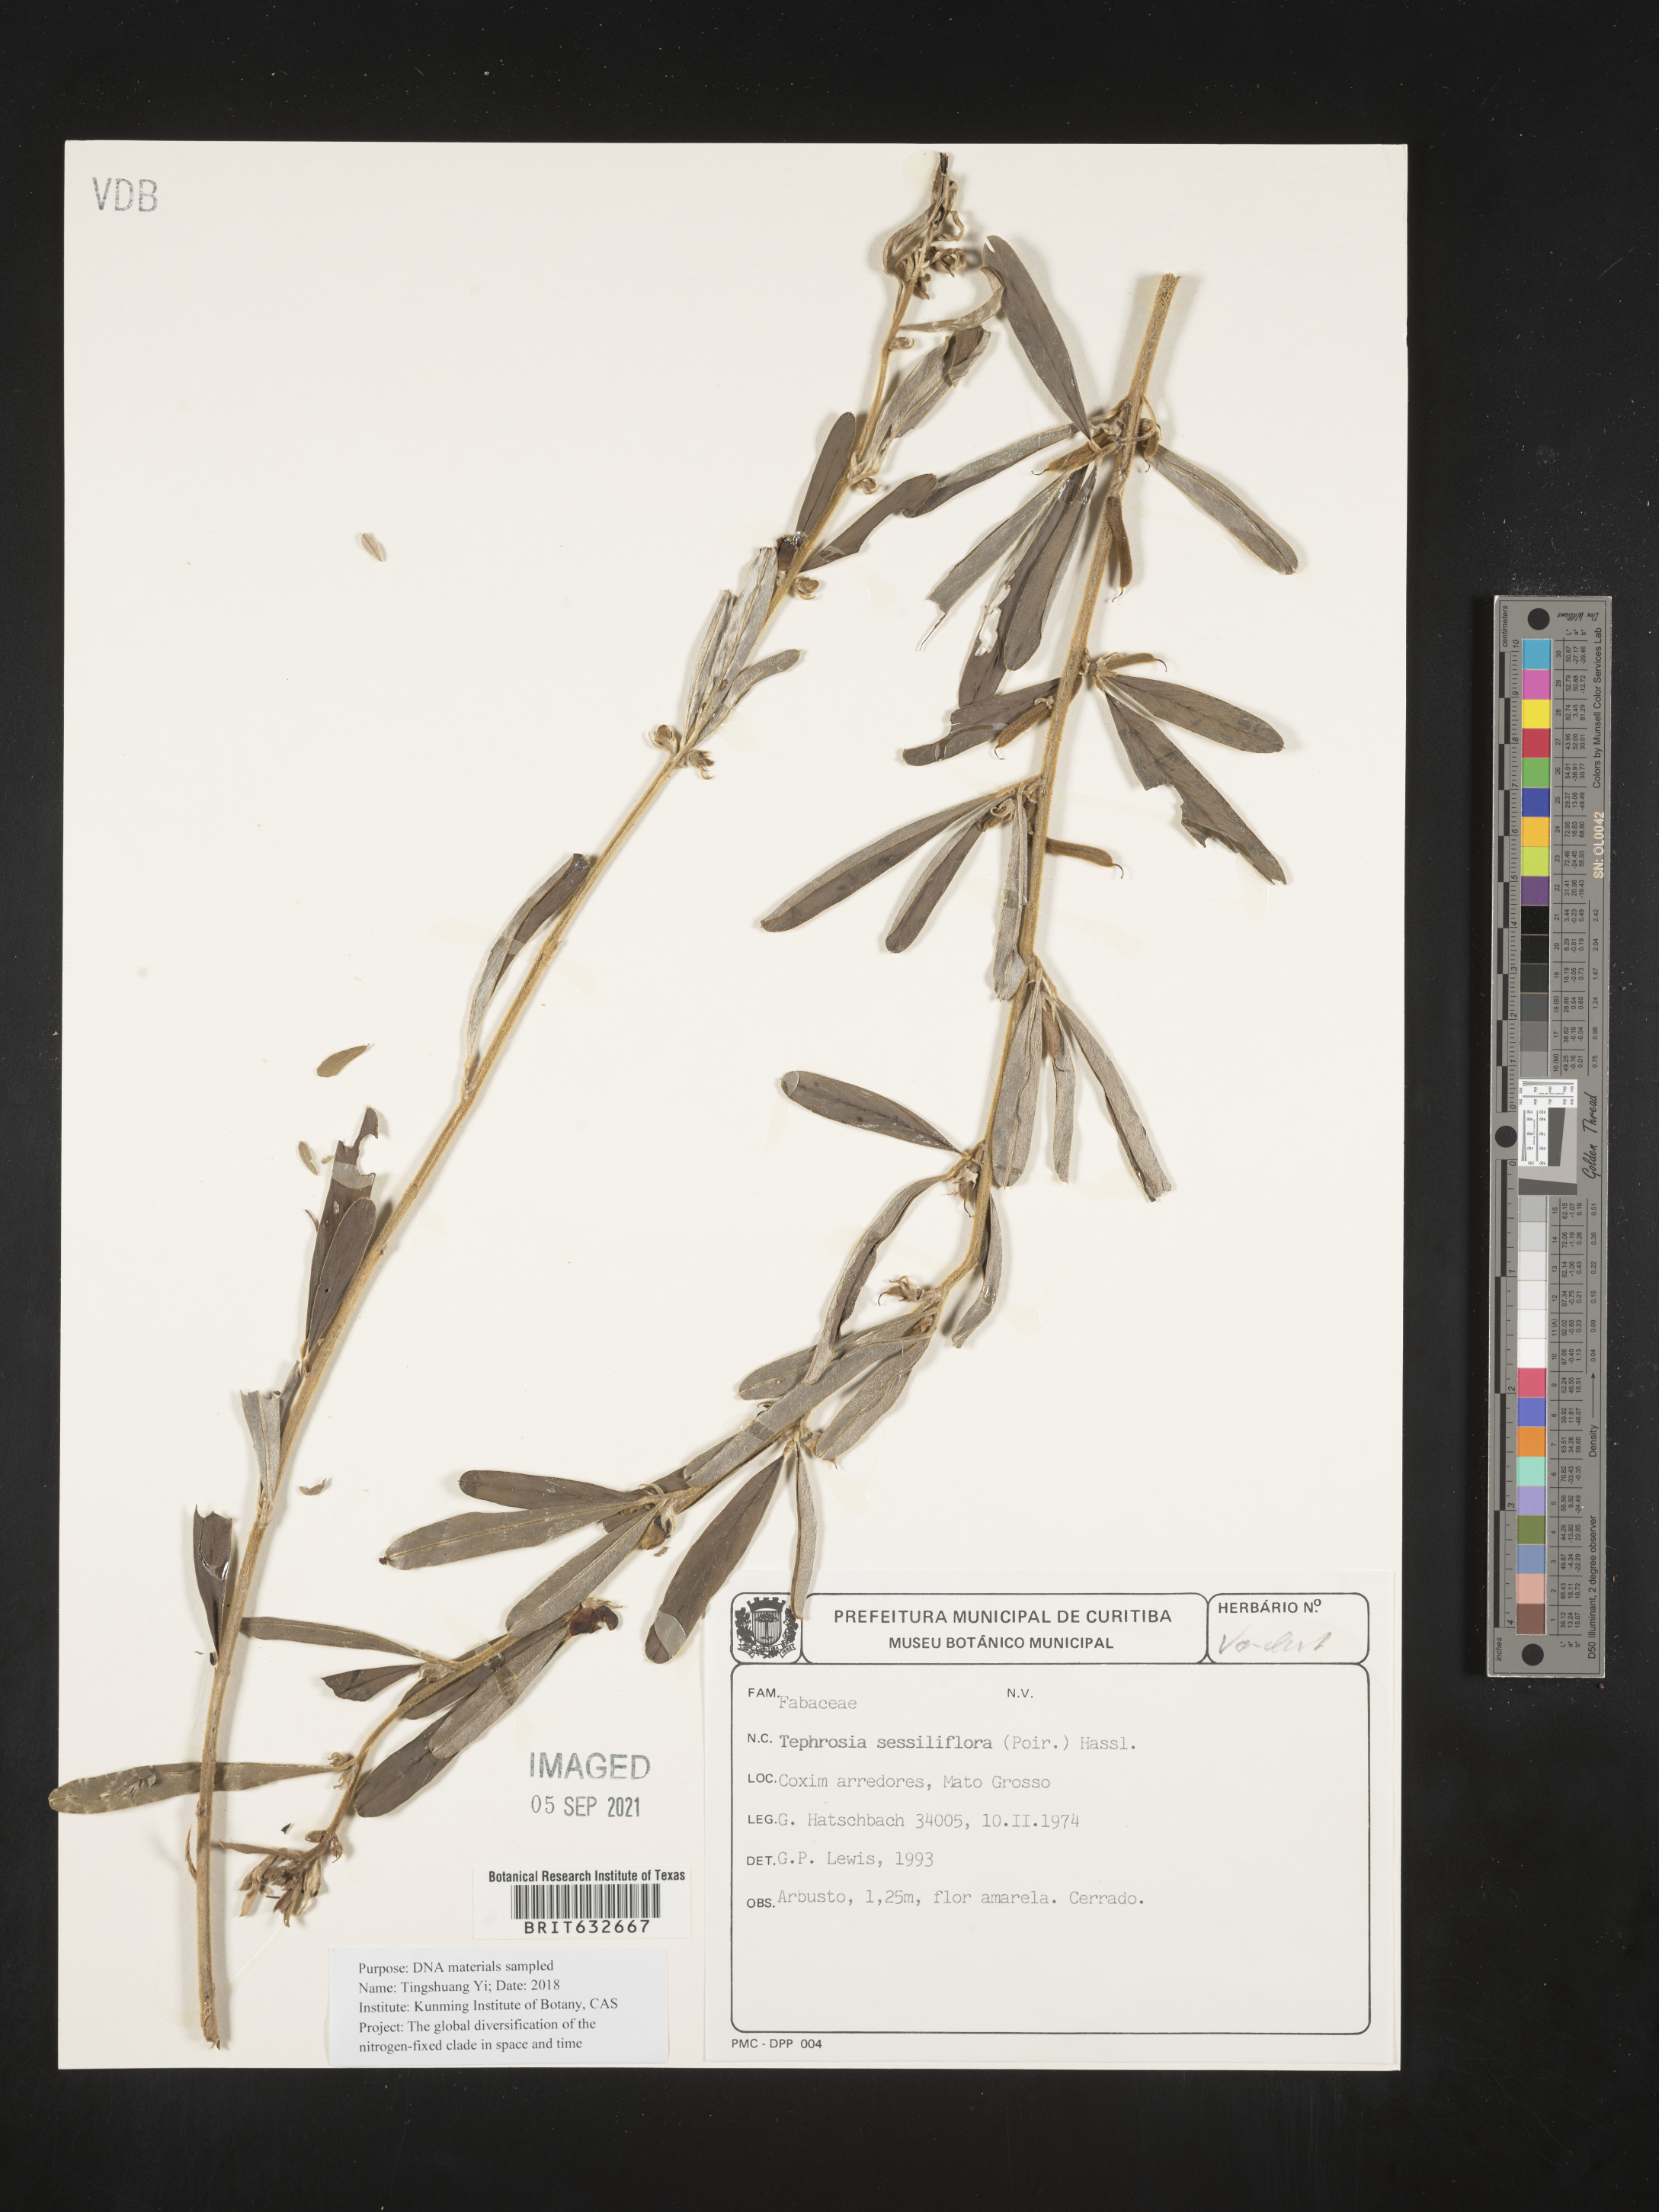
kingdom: Plantae
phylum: Tracheophyta
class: Magnoliopsida
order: Fabales
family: Fabaceae
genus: Tephrosia
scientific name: Tephrosia
